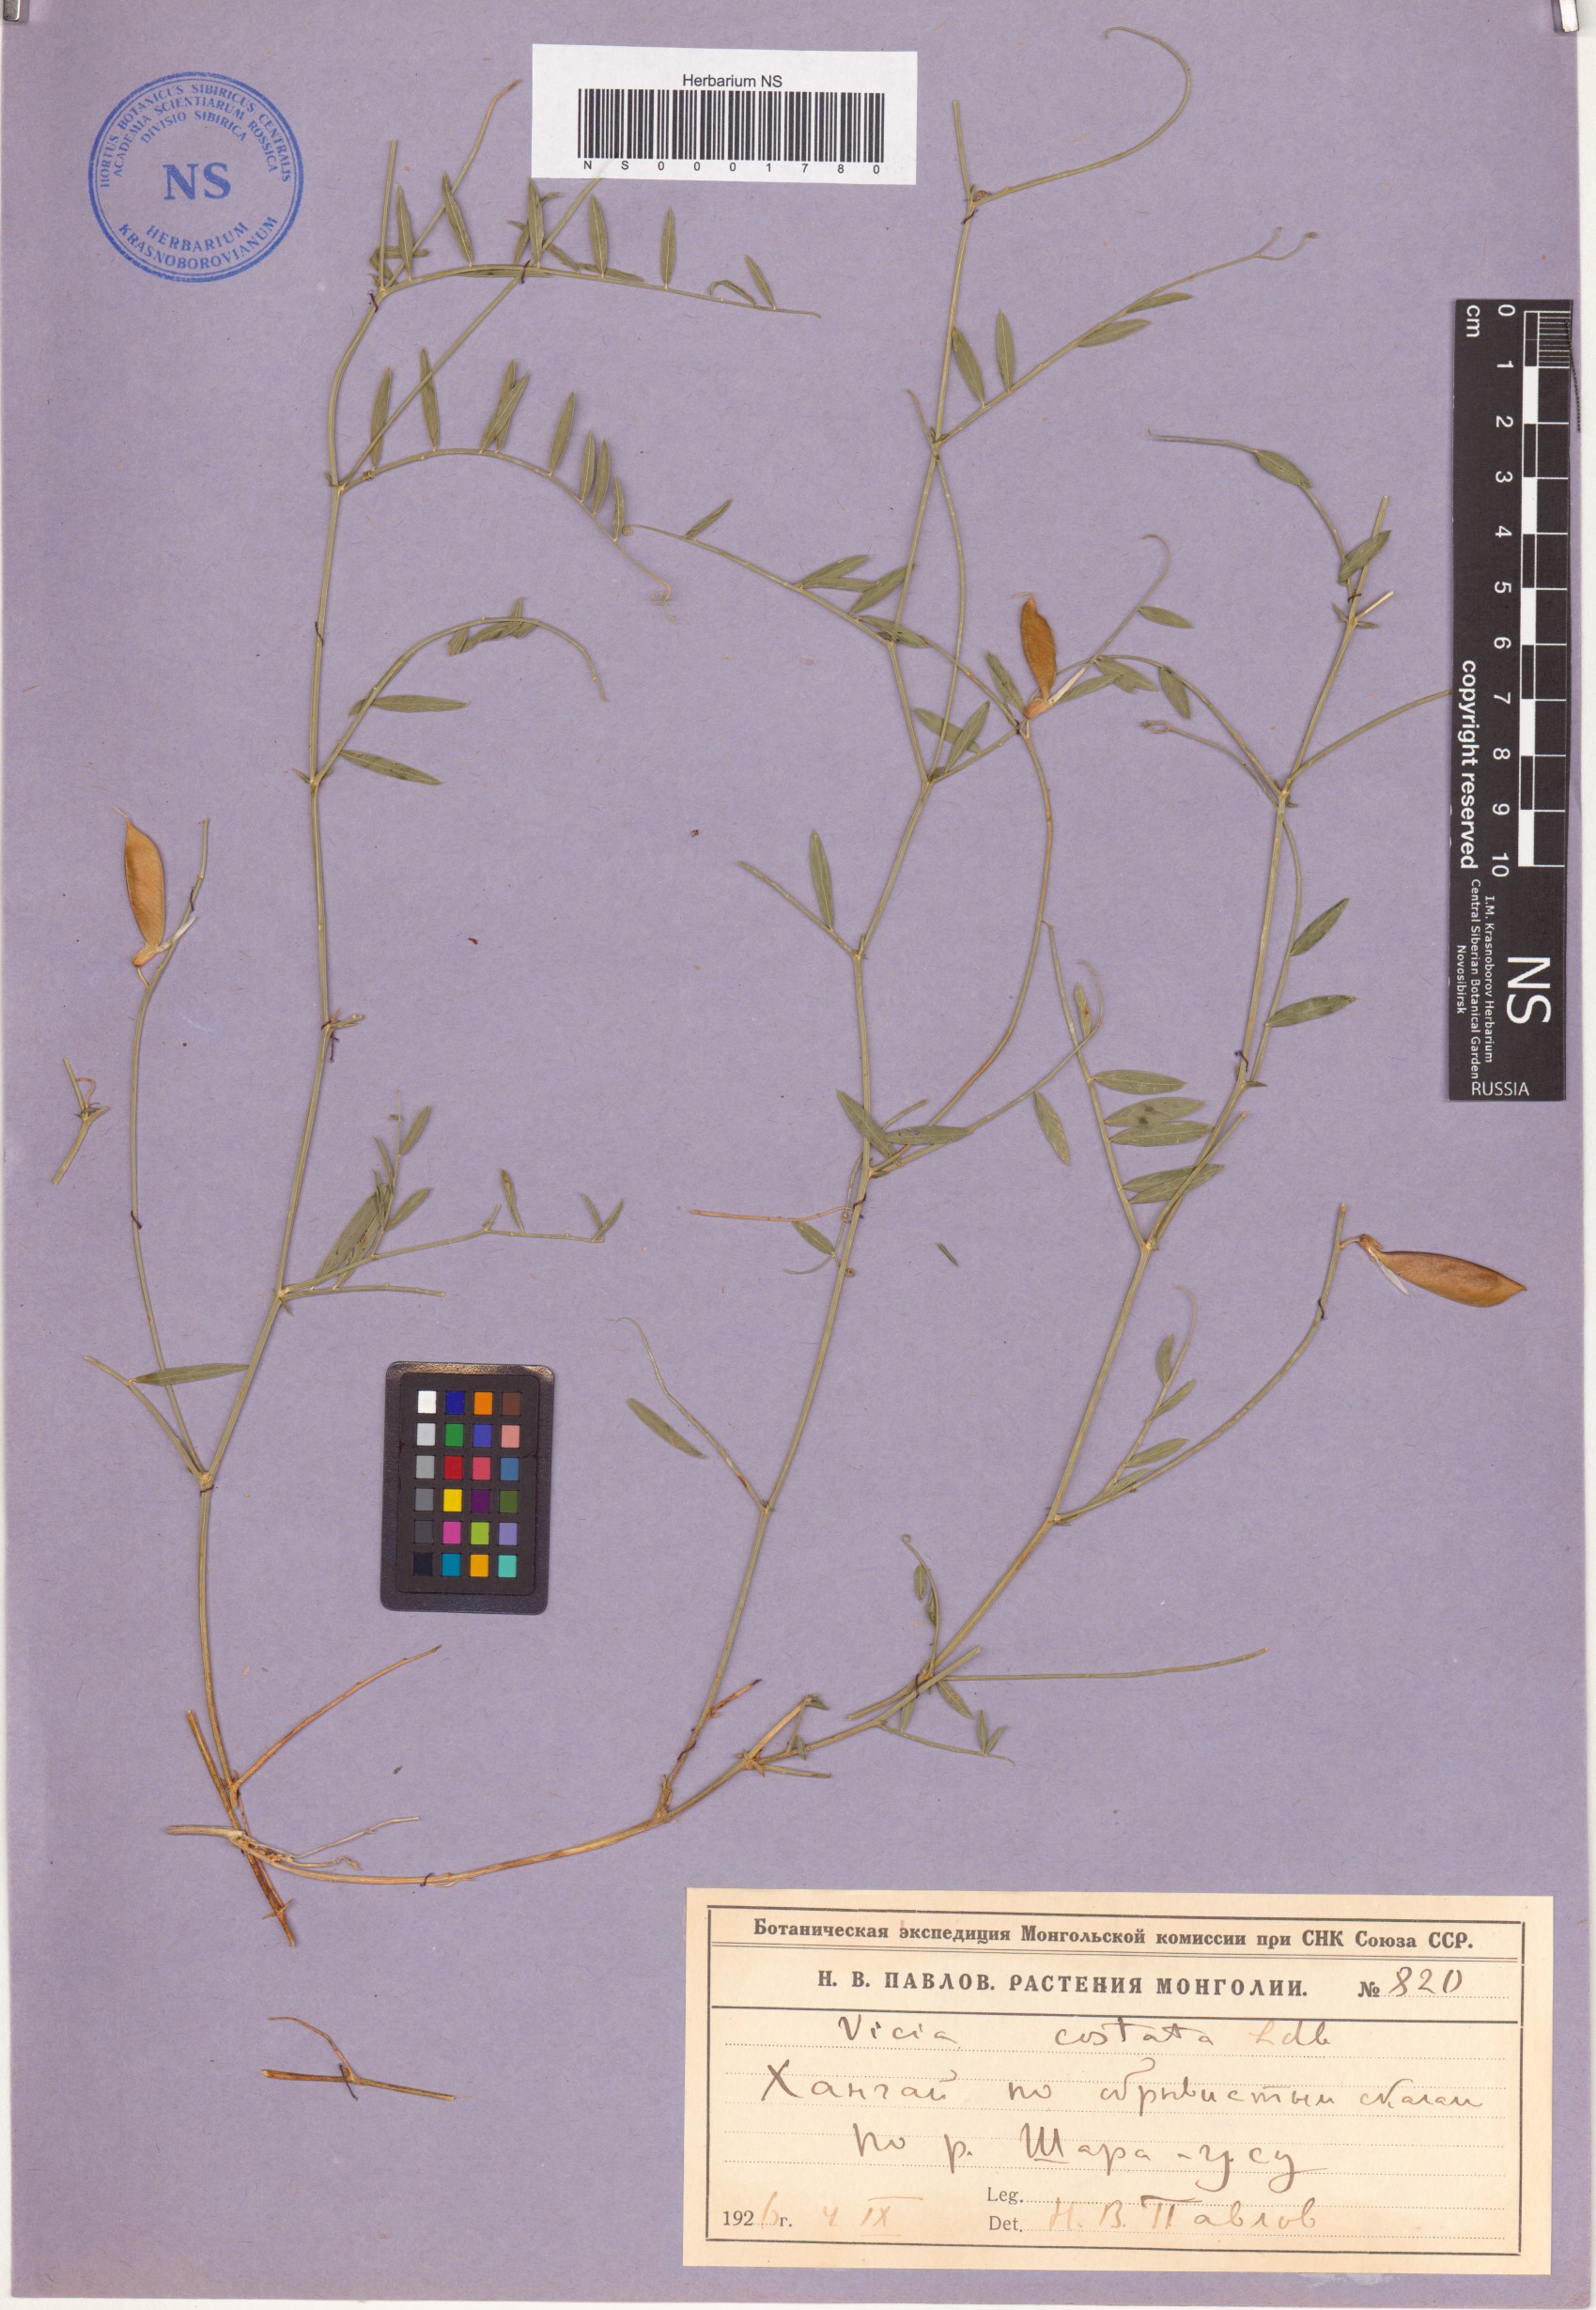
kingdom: Plantae
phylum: Tracheophyta
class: Magnoliopsida
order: Fabales
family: Fabaceae
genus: Vicia
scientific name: Vicia costata
